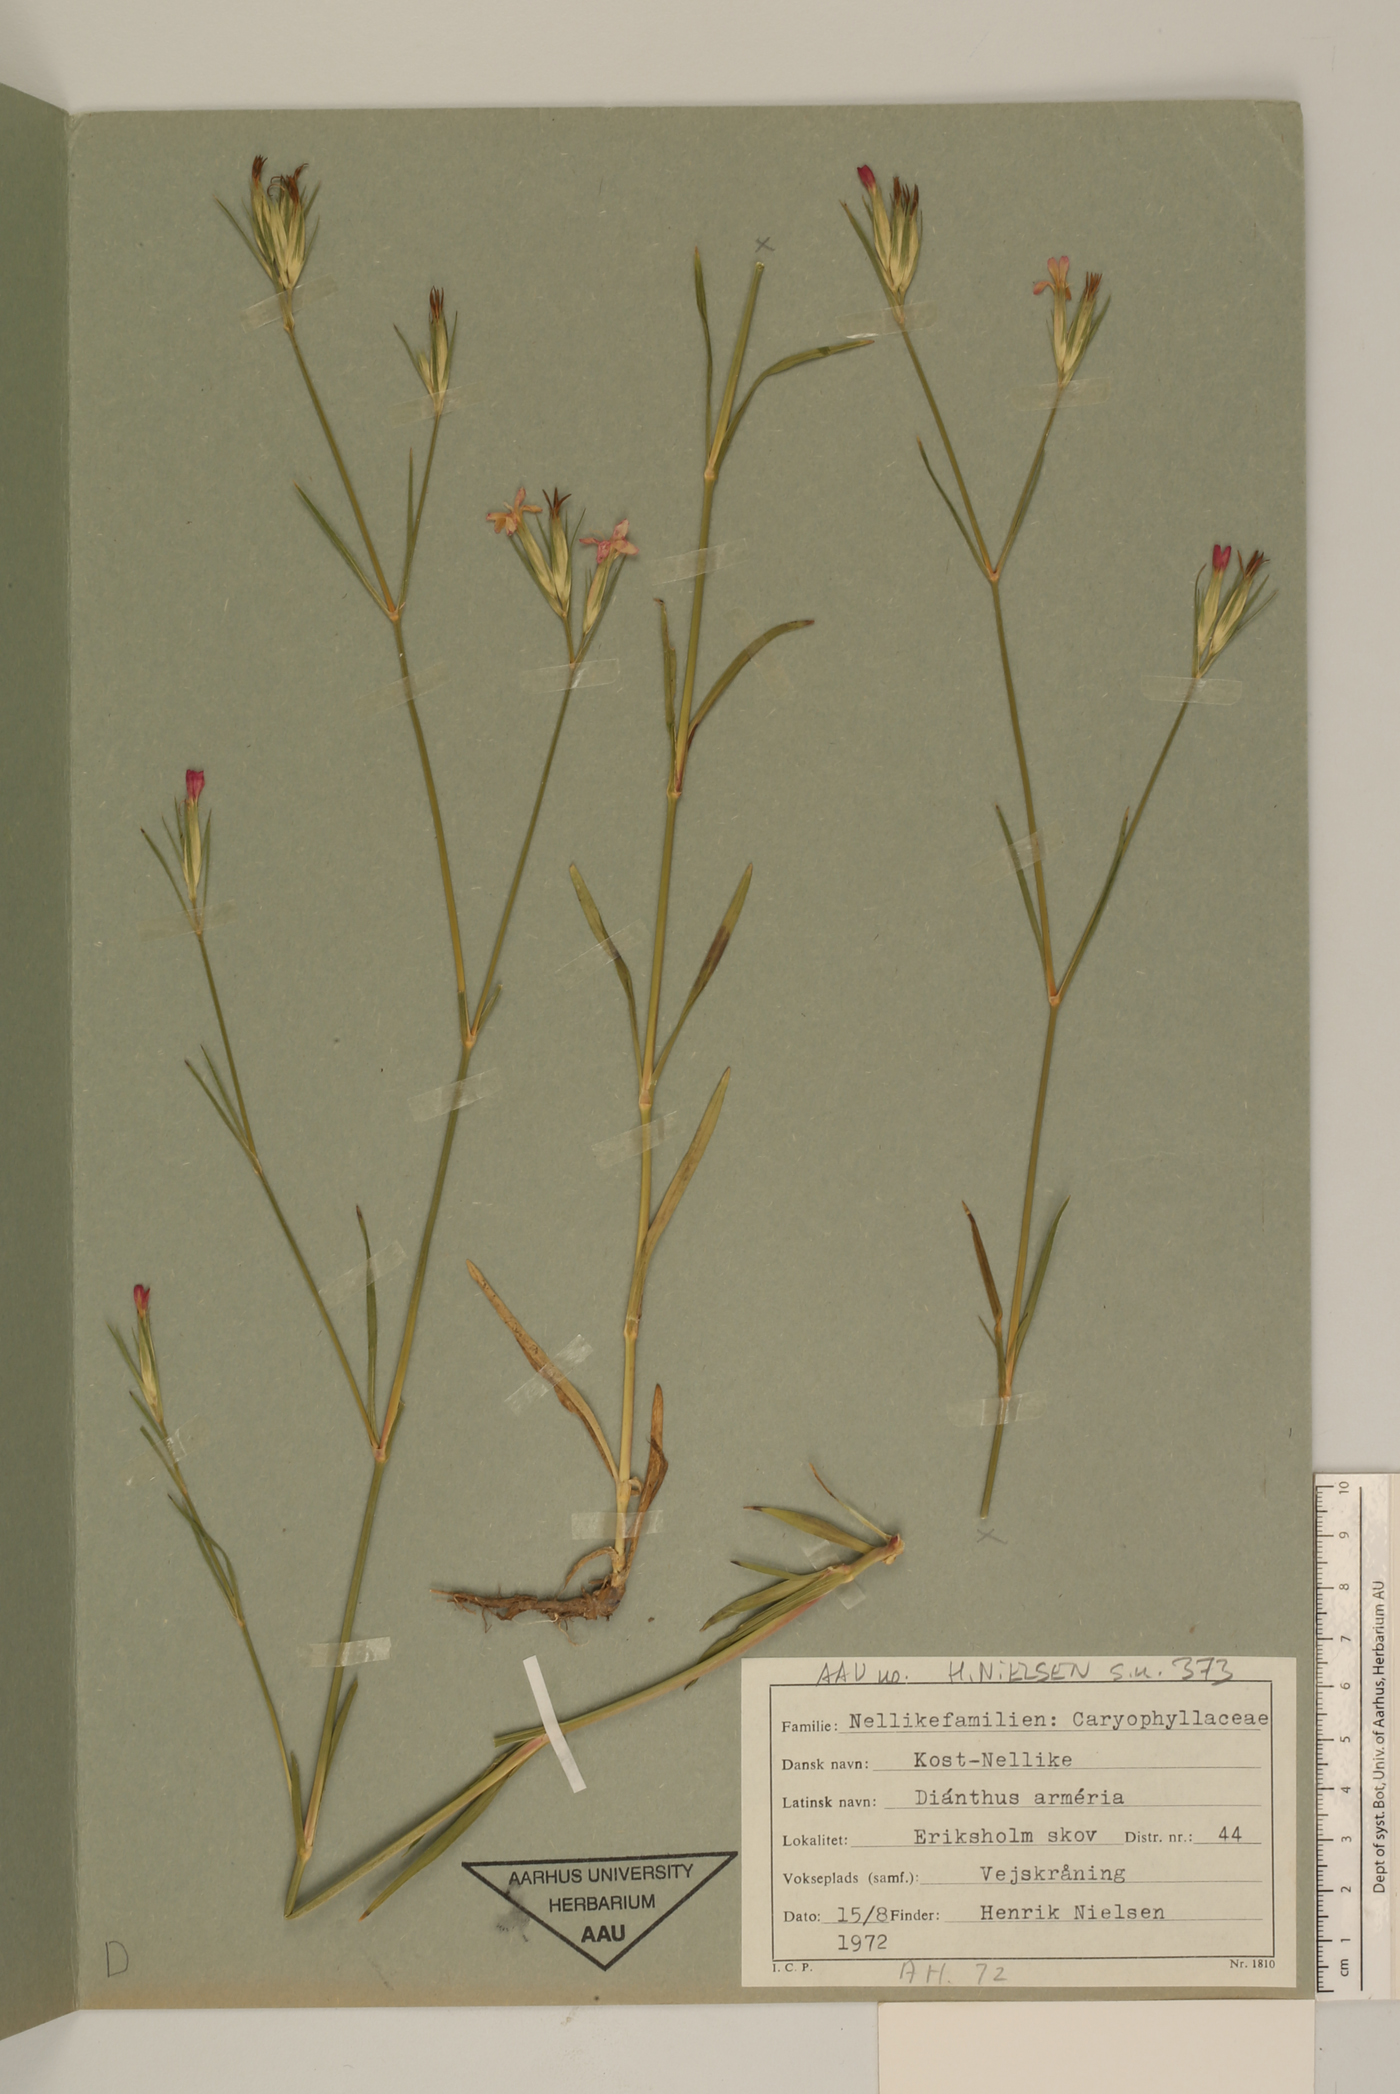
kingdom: Plantae
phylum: Tracheophyta
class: Magnoliopsida
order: Caryophyllales
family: Caryophyllaceae
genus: Dianthus
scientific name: Dianthus armeria
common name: Deptford pink
